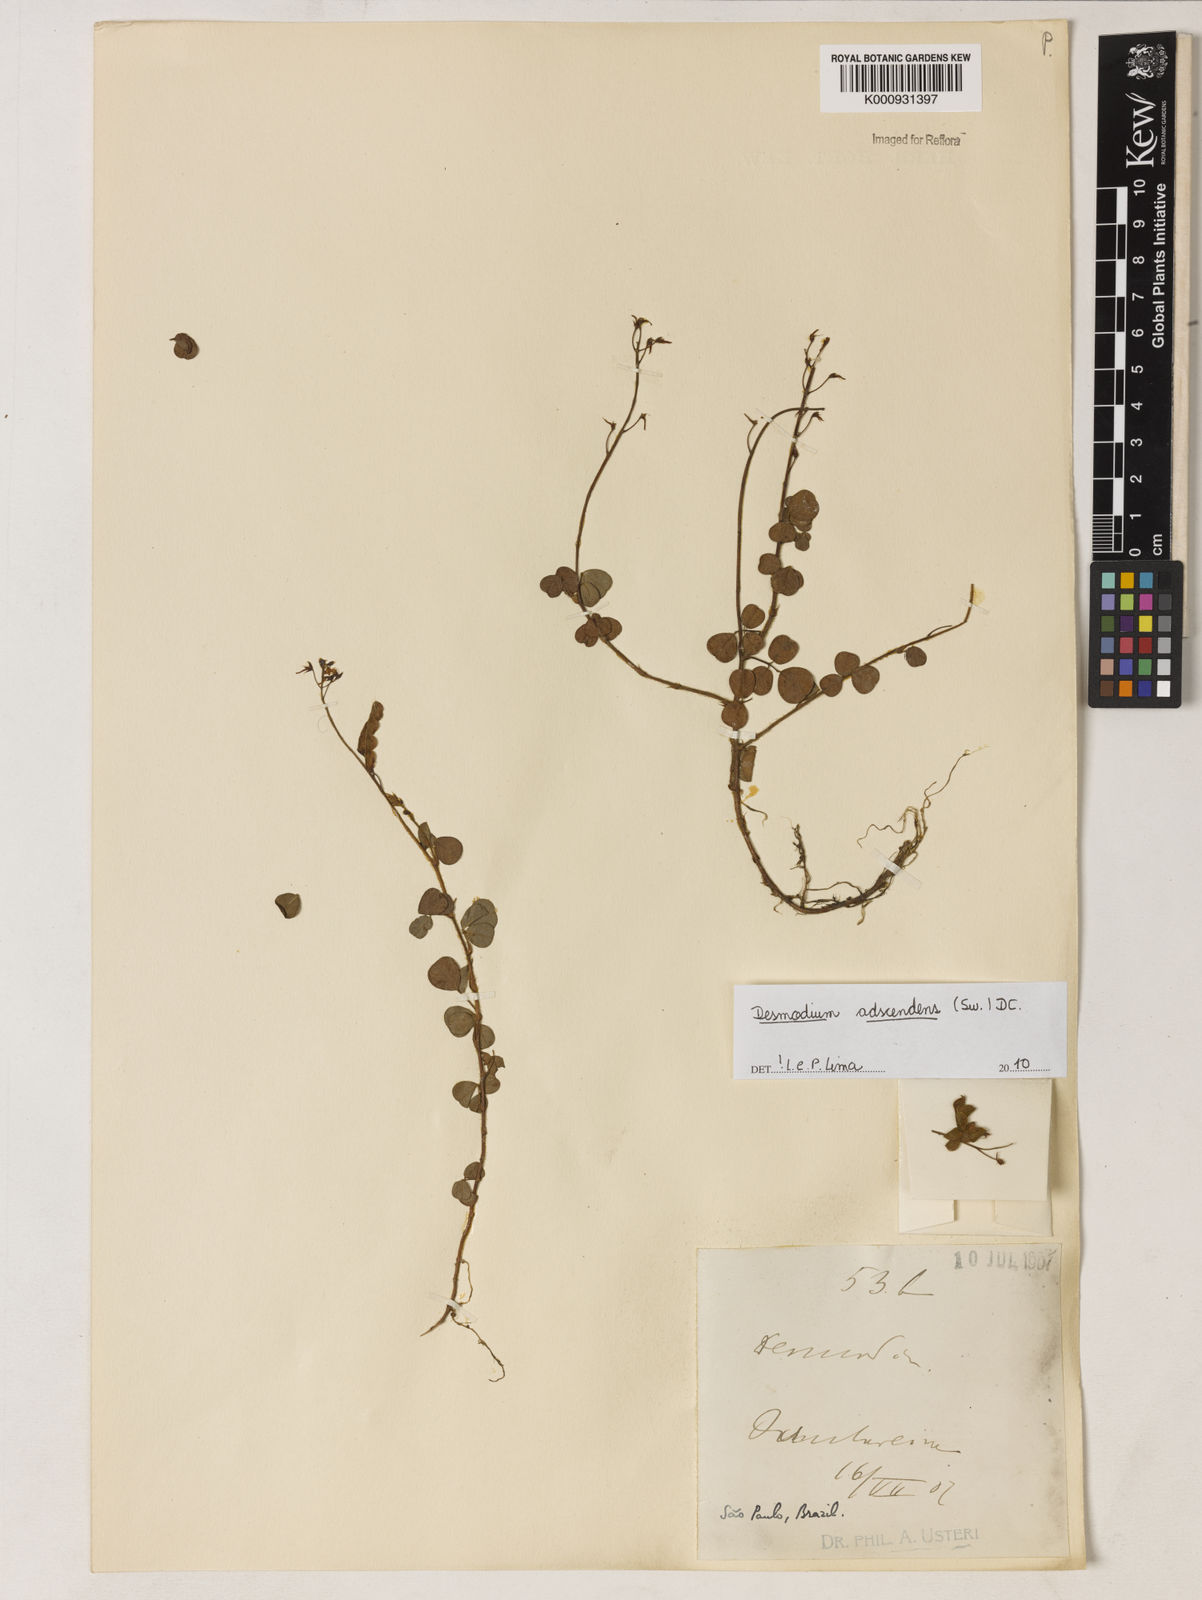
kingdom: Plantae
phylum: Tracheophyta
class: Magnoliopsida
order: Fabales
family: Fabaceae
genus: Grona
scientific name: Grona adscendens
